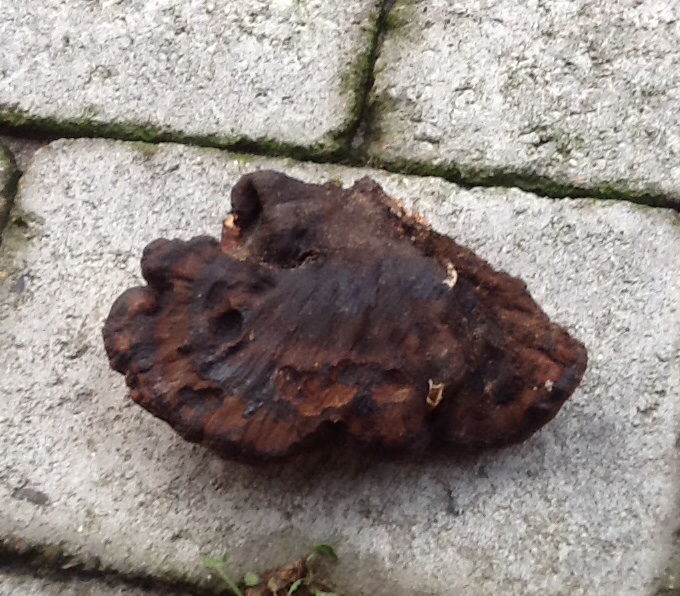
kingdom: Fungi
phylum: Basidiomycota
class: Agaricomycetes
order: Polyporales
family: Ischnodermataceae
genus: Ischnoderma
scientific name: Ischnoderma resinosum
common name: løv-tjæreporesvamp
